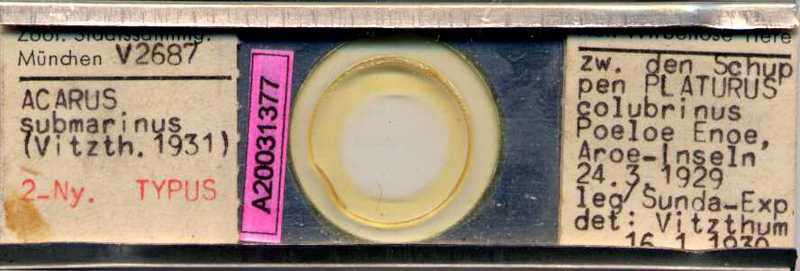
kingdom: Animalia
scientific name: Animalia
